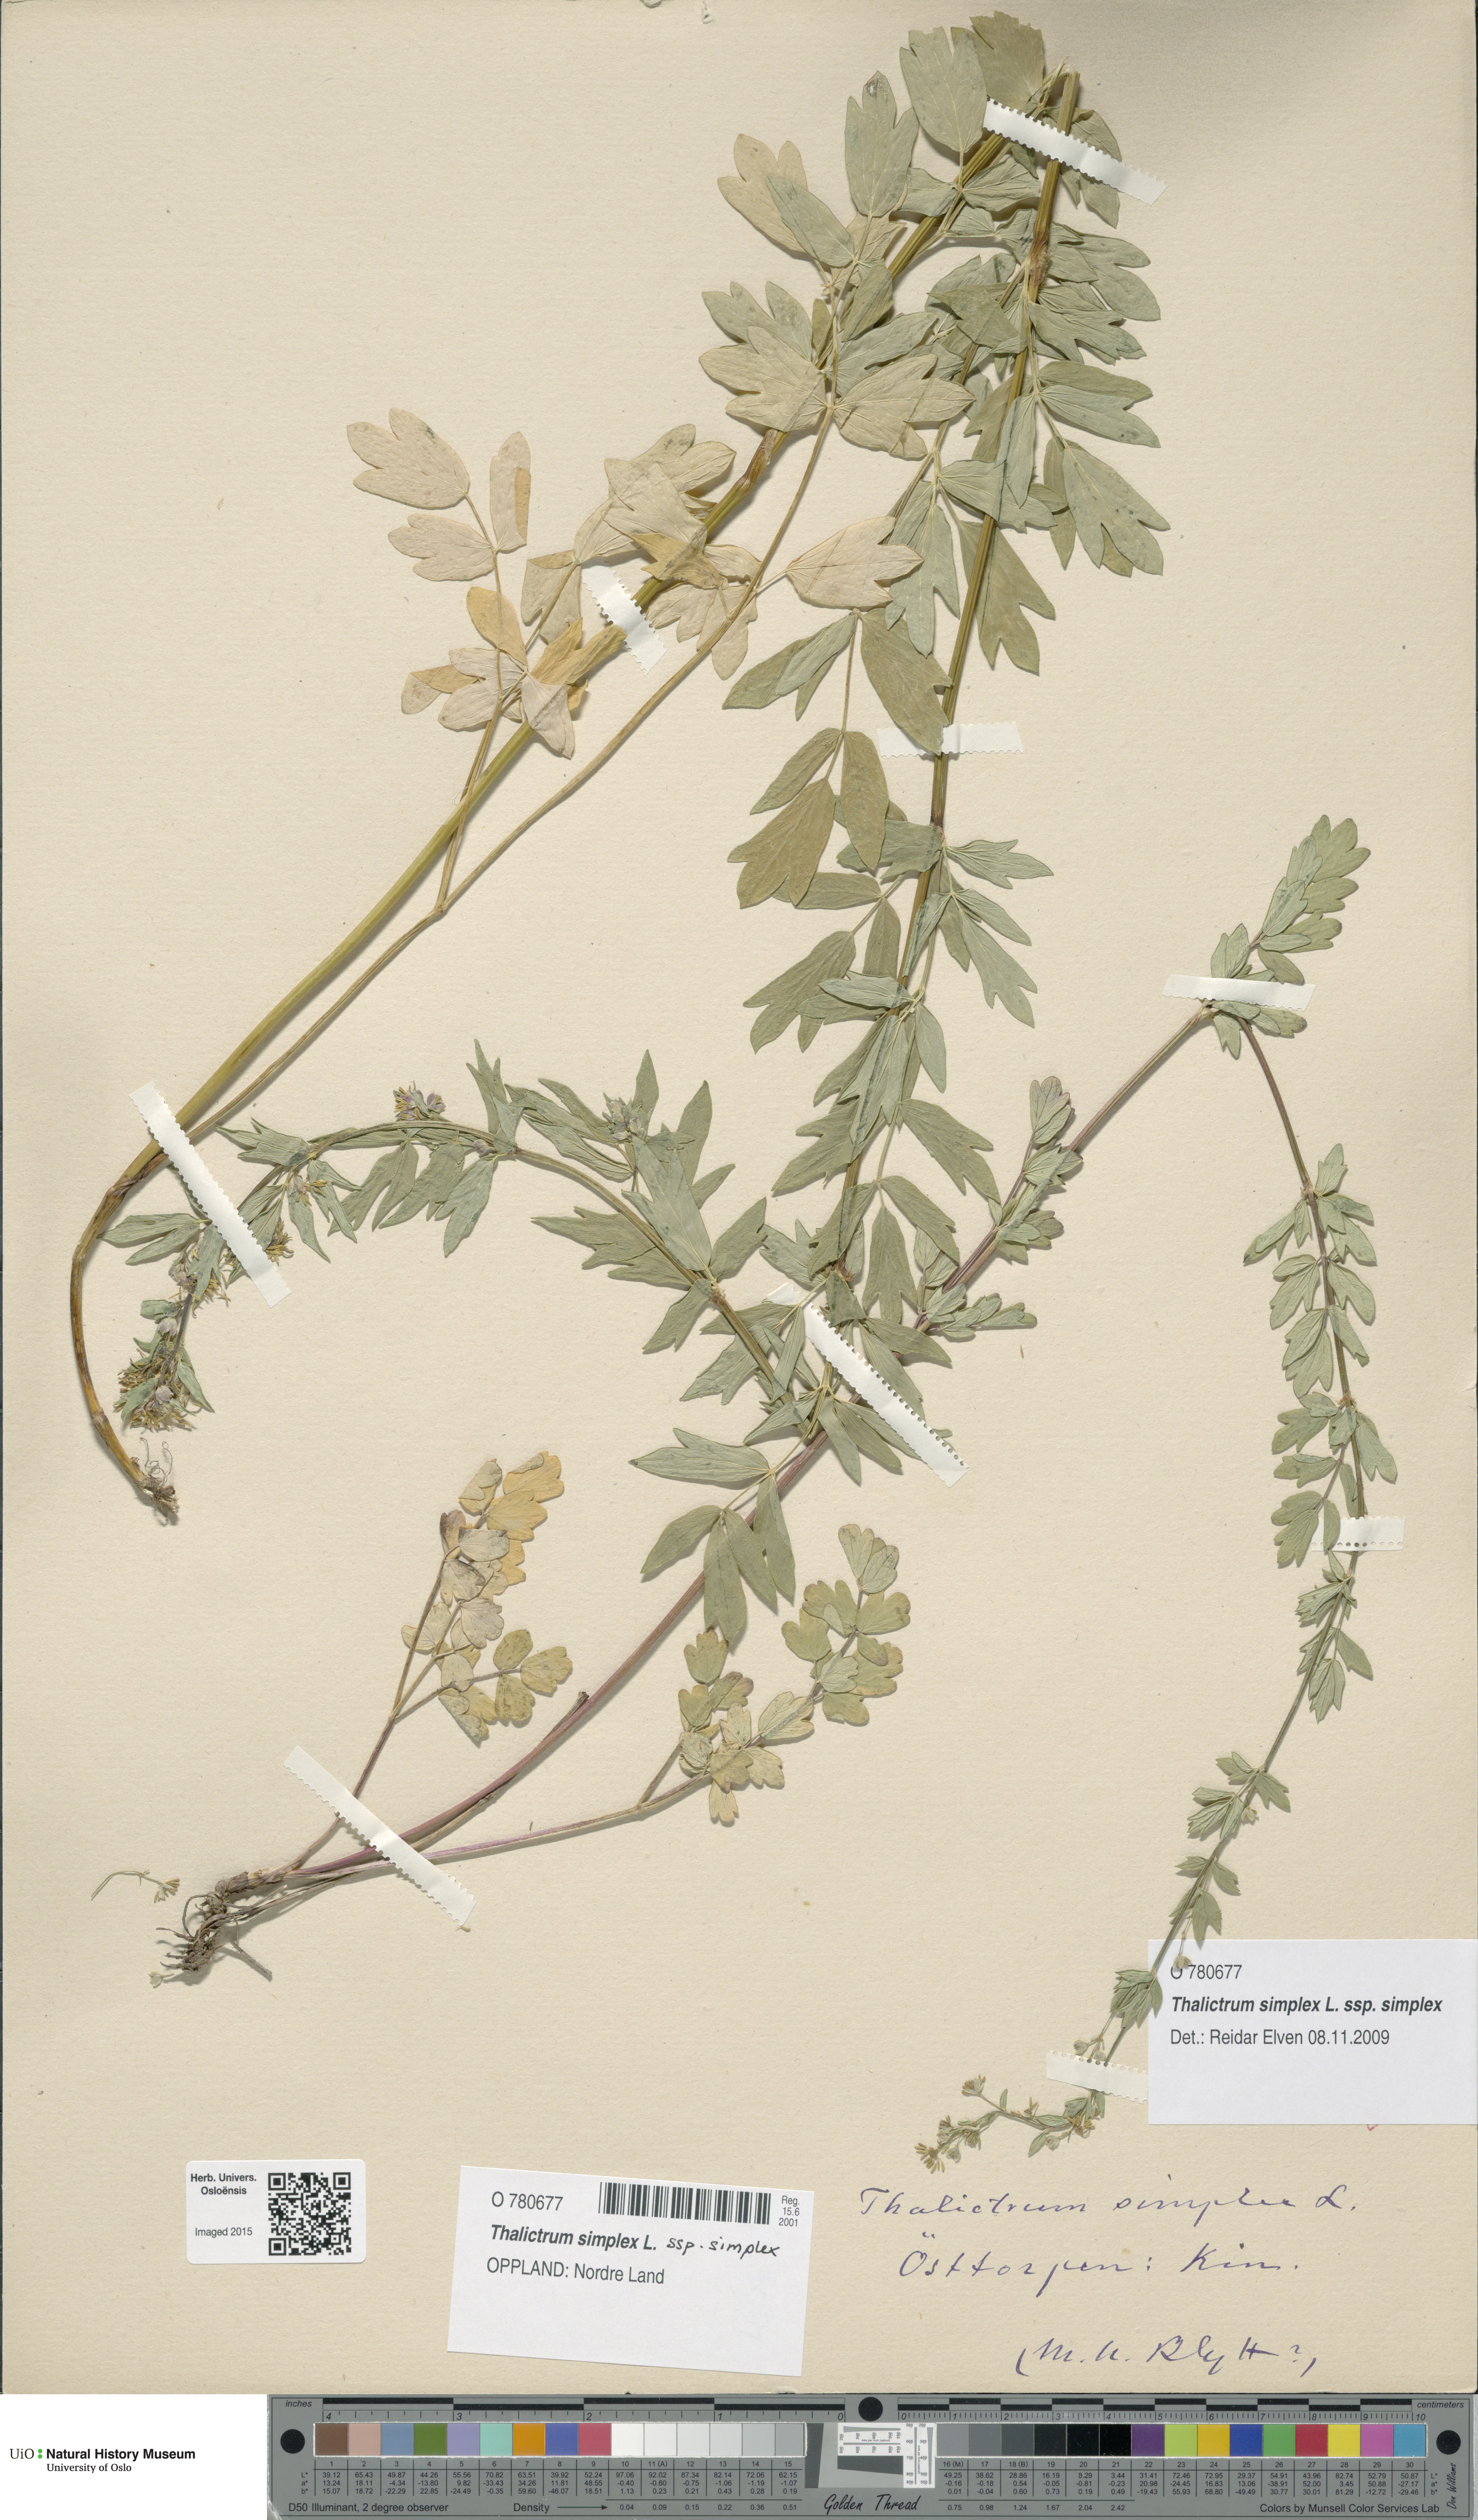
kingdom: Plantae
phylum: Tracheophyta
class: Magnoliopsida
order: Ranunculales
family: Ranunculaceae
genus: Thalictrum
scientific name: Thalictrum simplex
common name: Small meadow-rue
